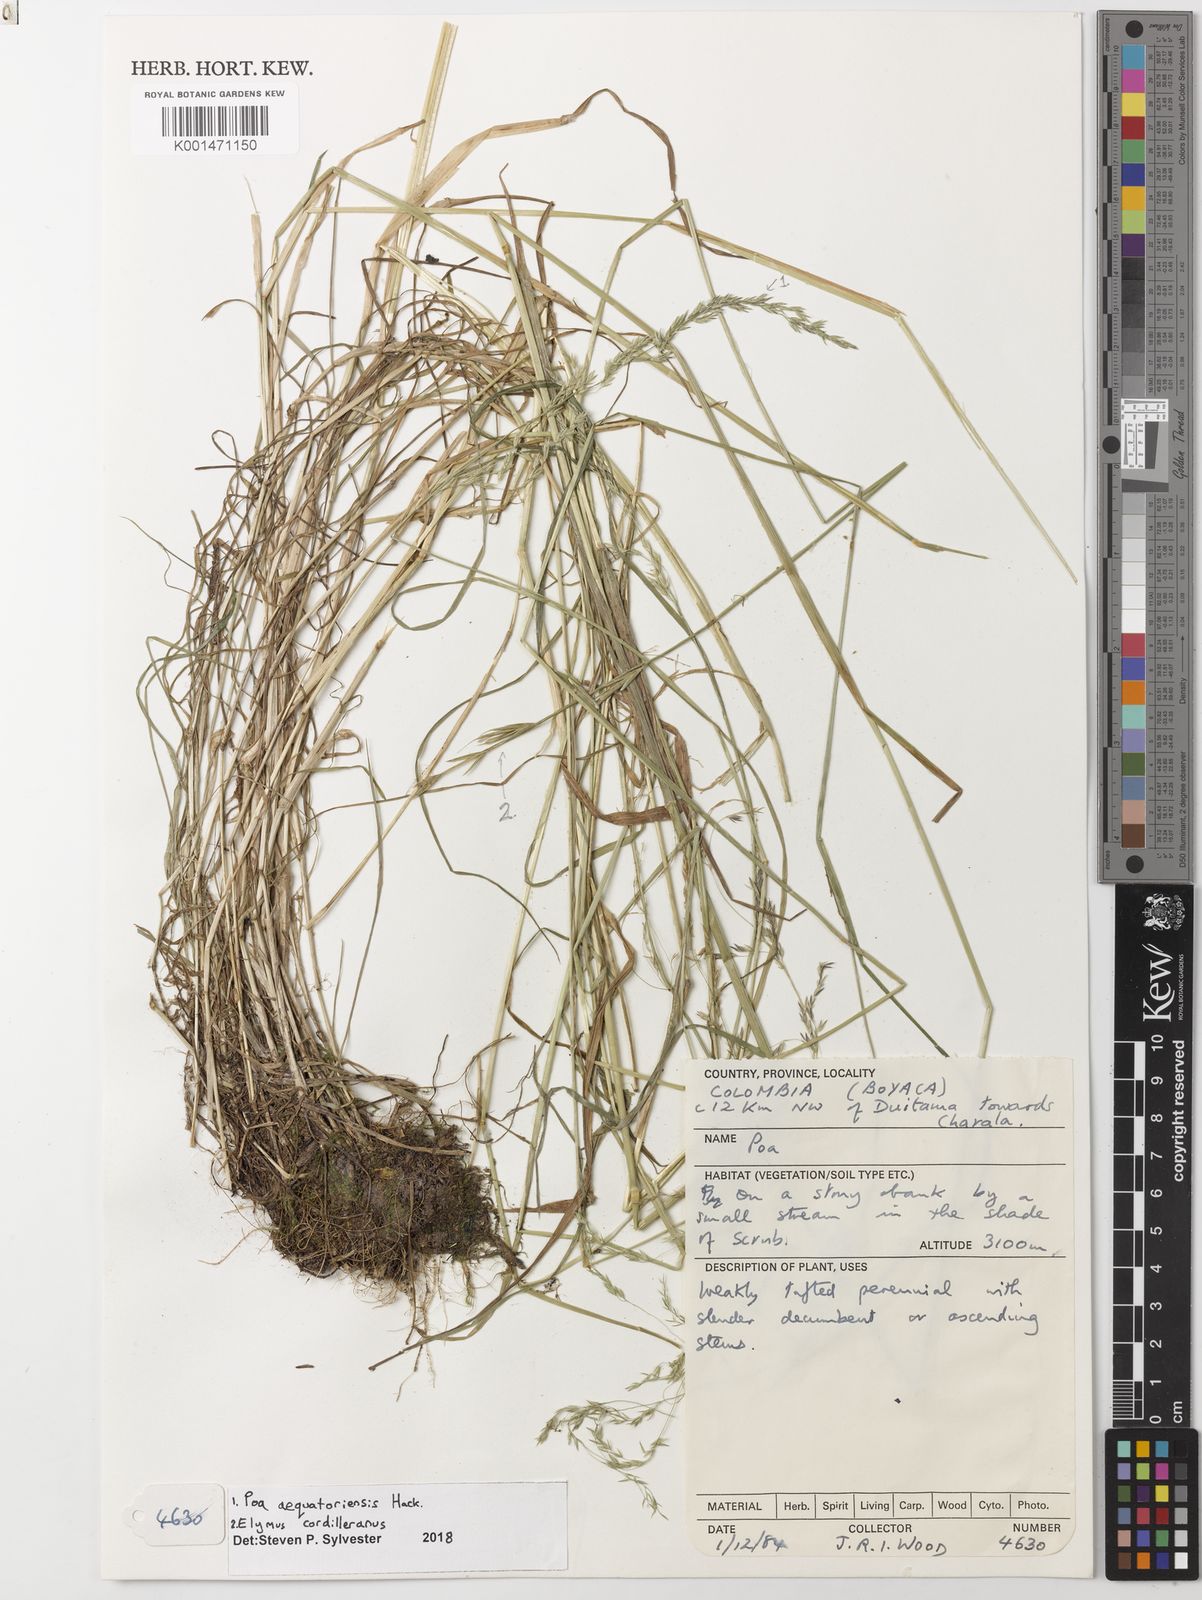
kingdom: Plantae
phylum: Tracheophyta
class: Liliopsida
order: Poales
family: Poaceae
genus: Poa
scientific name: Poa aequatoriensis
